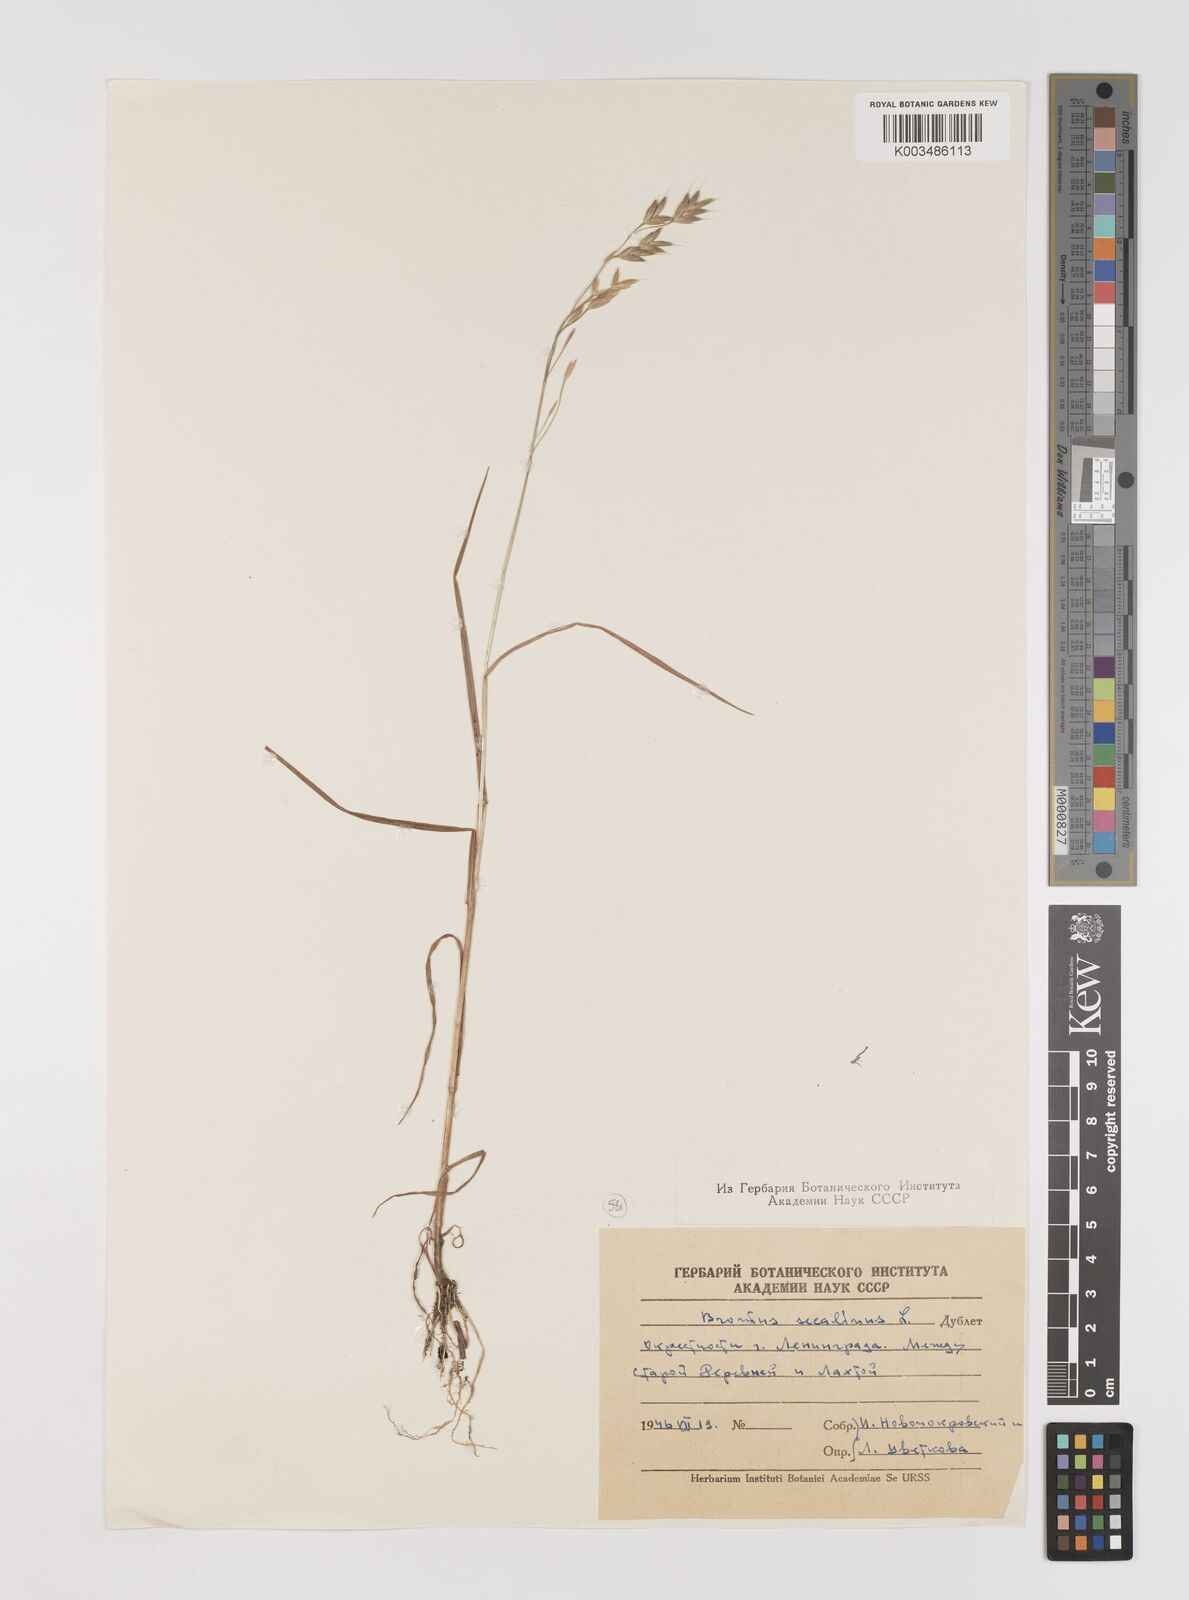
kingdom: Plantae
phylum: Tracheophyta
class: Liliopsida
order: Poales
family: Poaceae
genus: Bromus
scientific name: Bromus secalinus
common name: Rye brome
